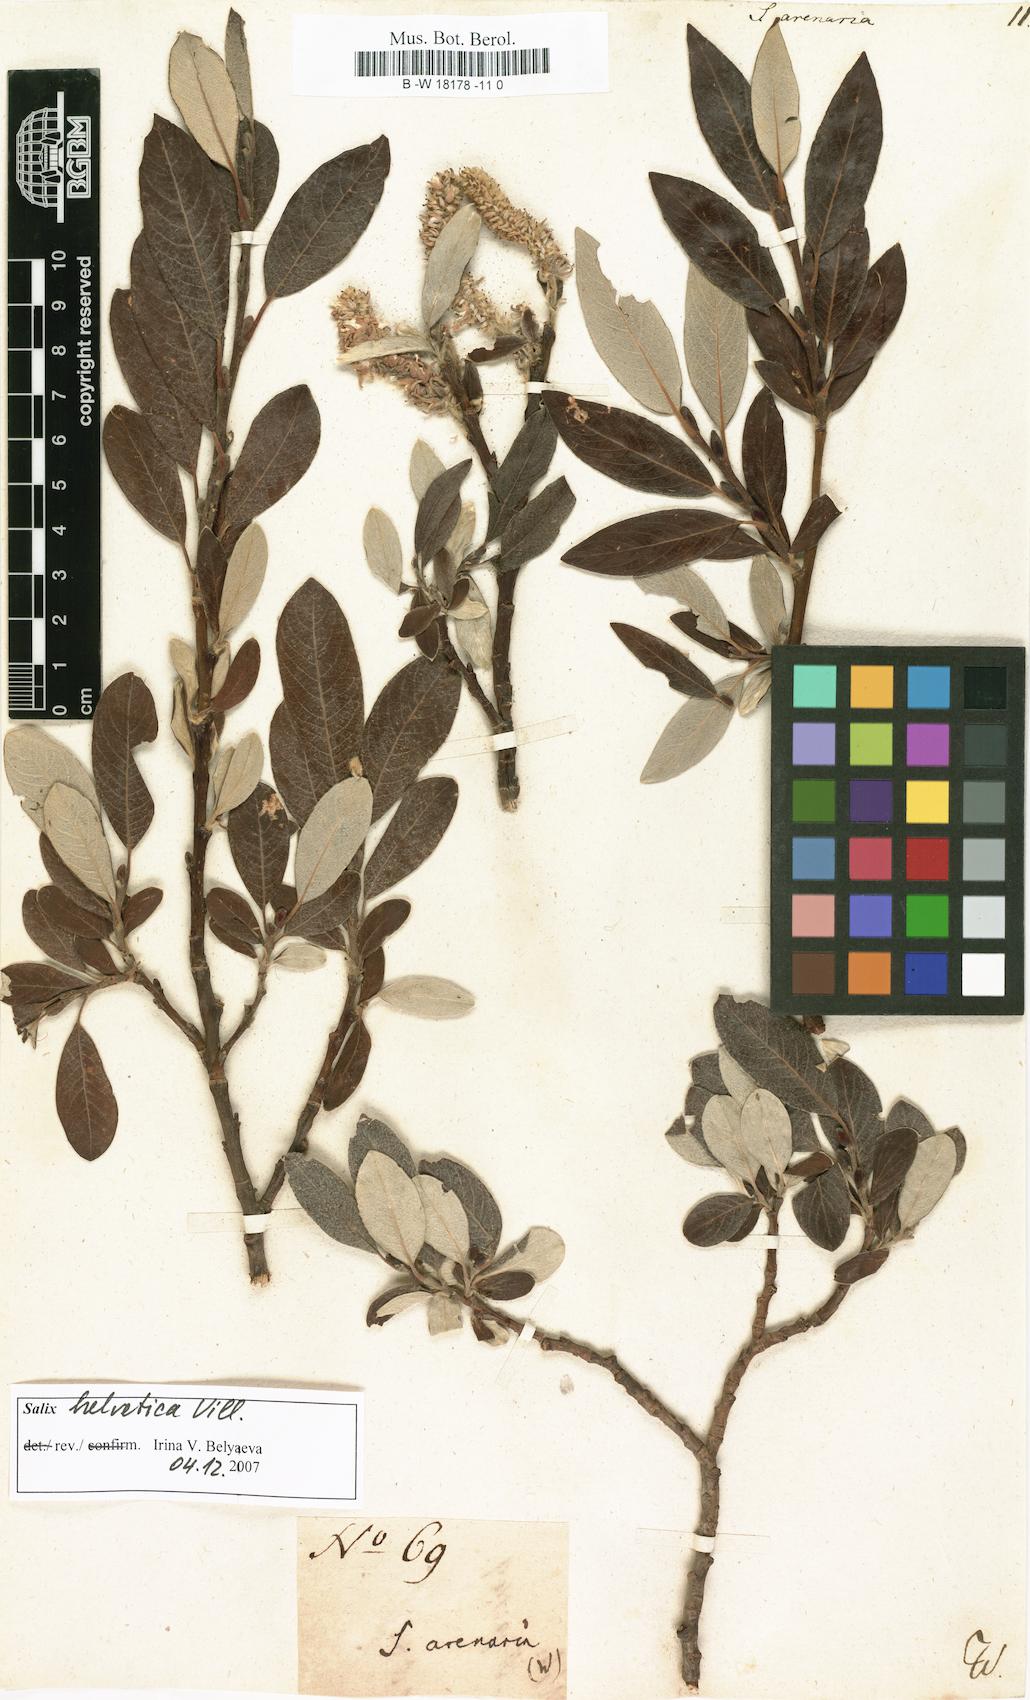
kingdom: Plantae
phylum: Tracheophyta
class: Magnoliopsida
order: Malpighiales
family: Salicaceae
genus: Salix
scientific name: Salix repens
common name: Creeping willow
